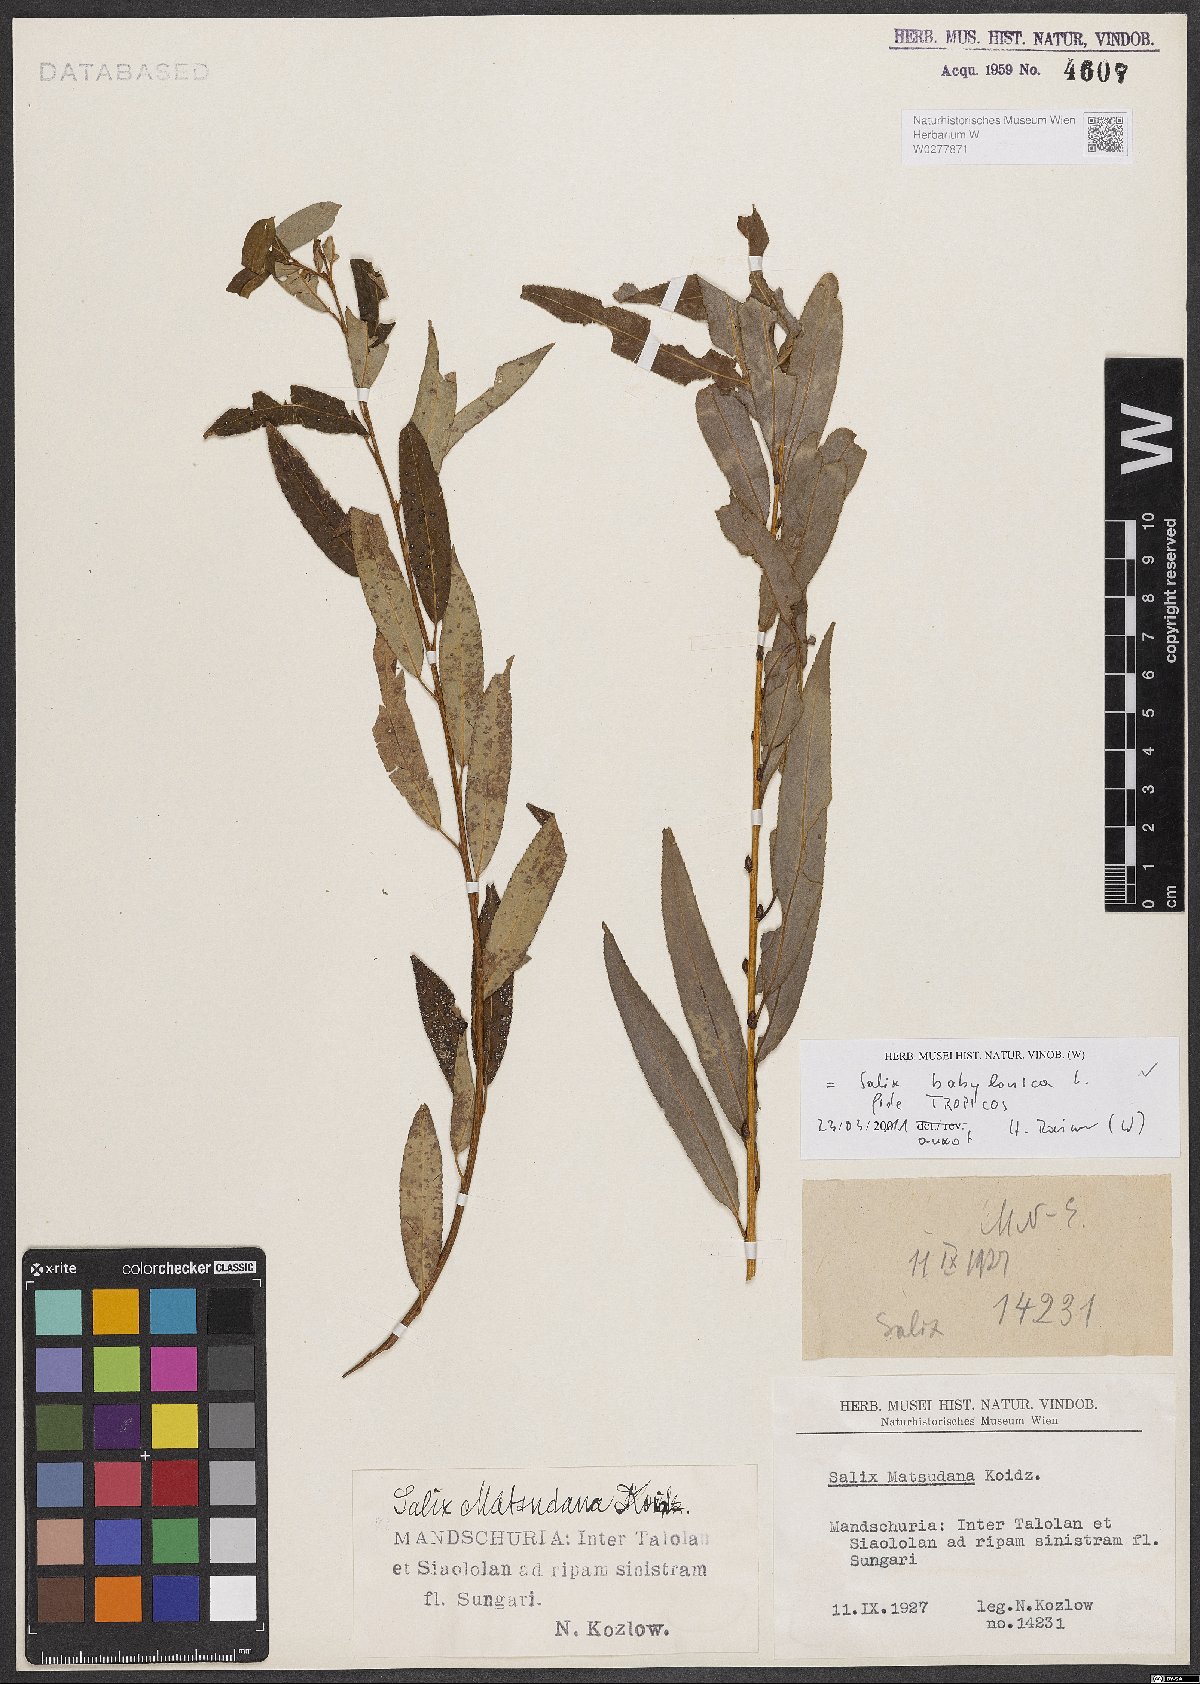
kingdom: Plantae
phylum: Tracheophyta
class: Magnoliopsida
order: Malpighiales
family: Salicaceae
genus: Salix
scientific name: Salix babylonica
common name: Weeping willow
